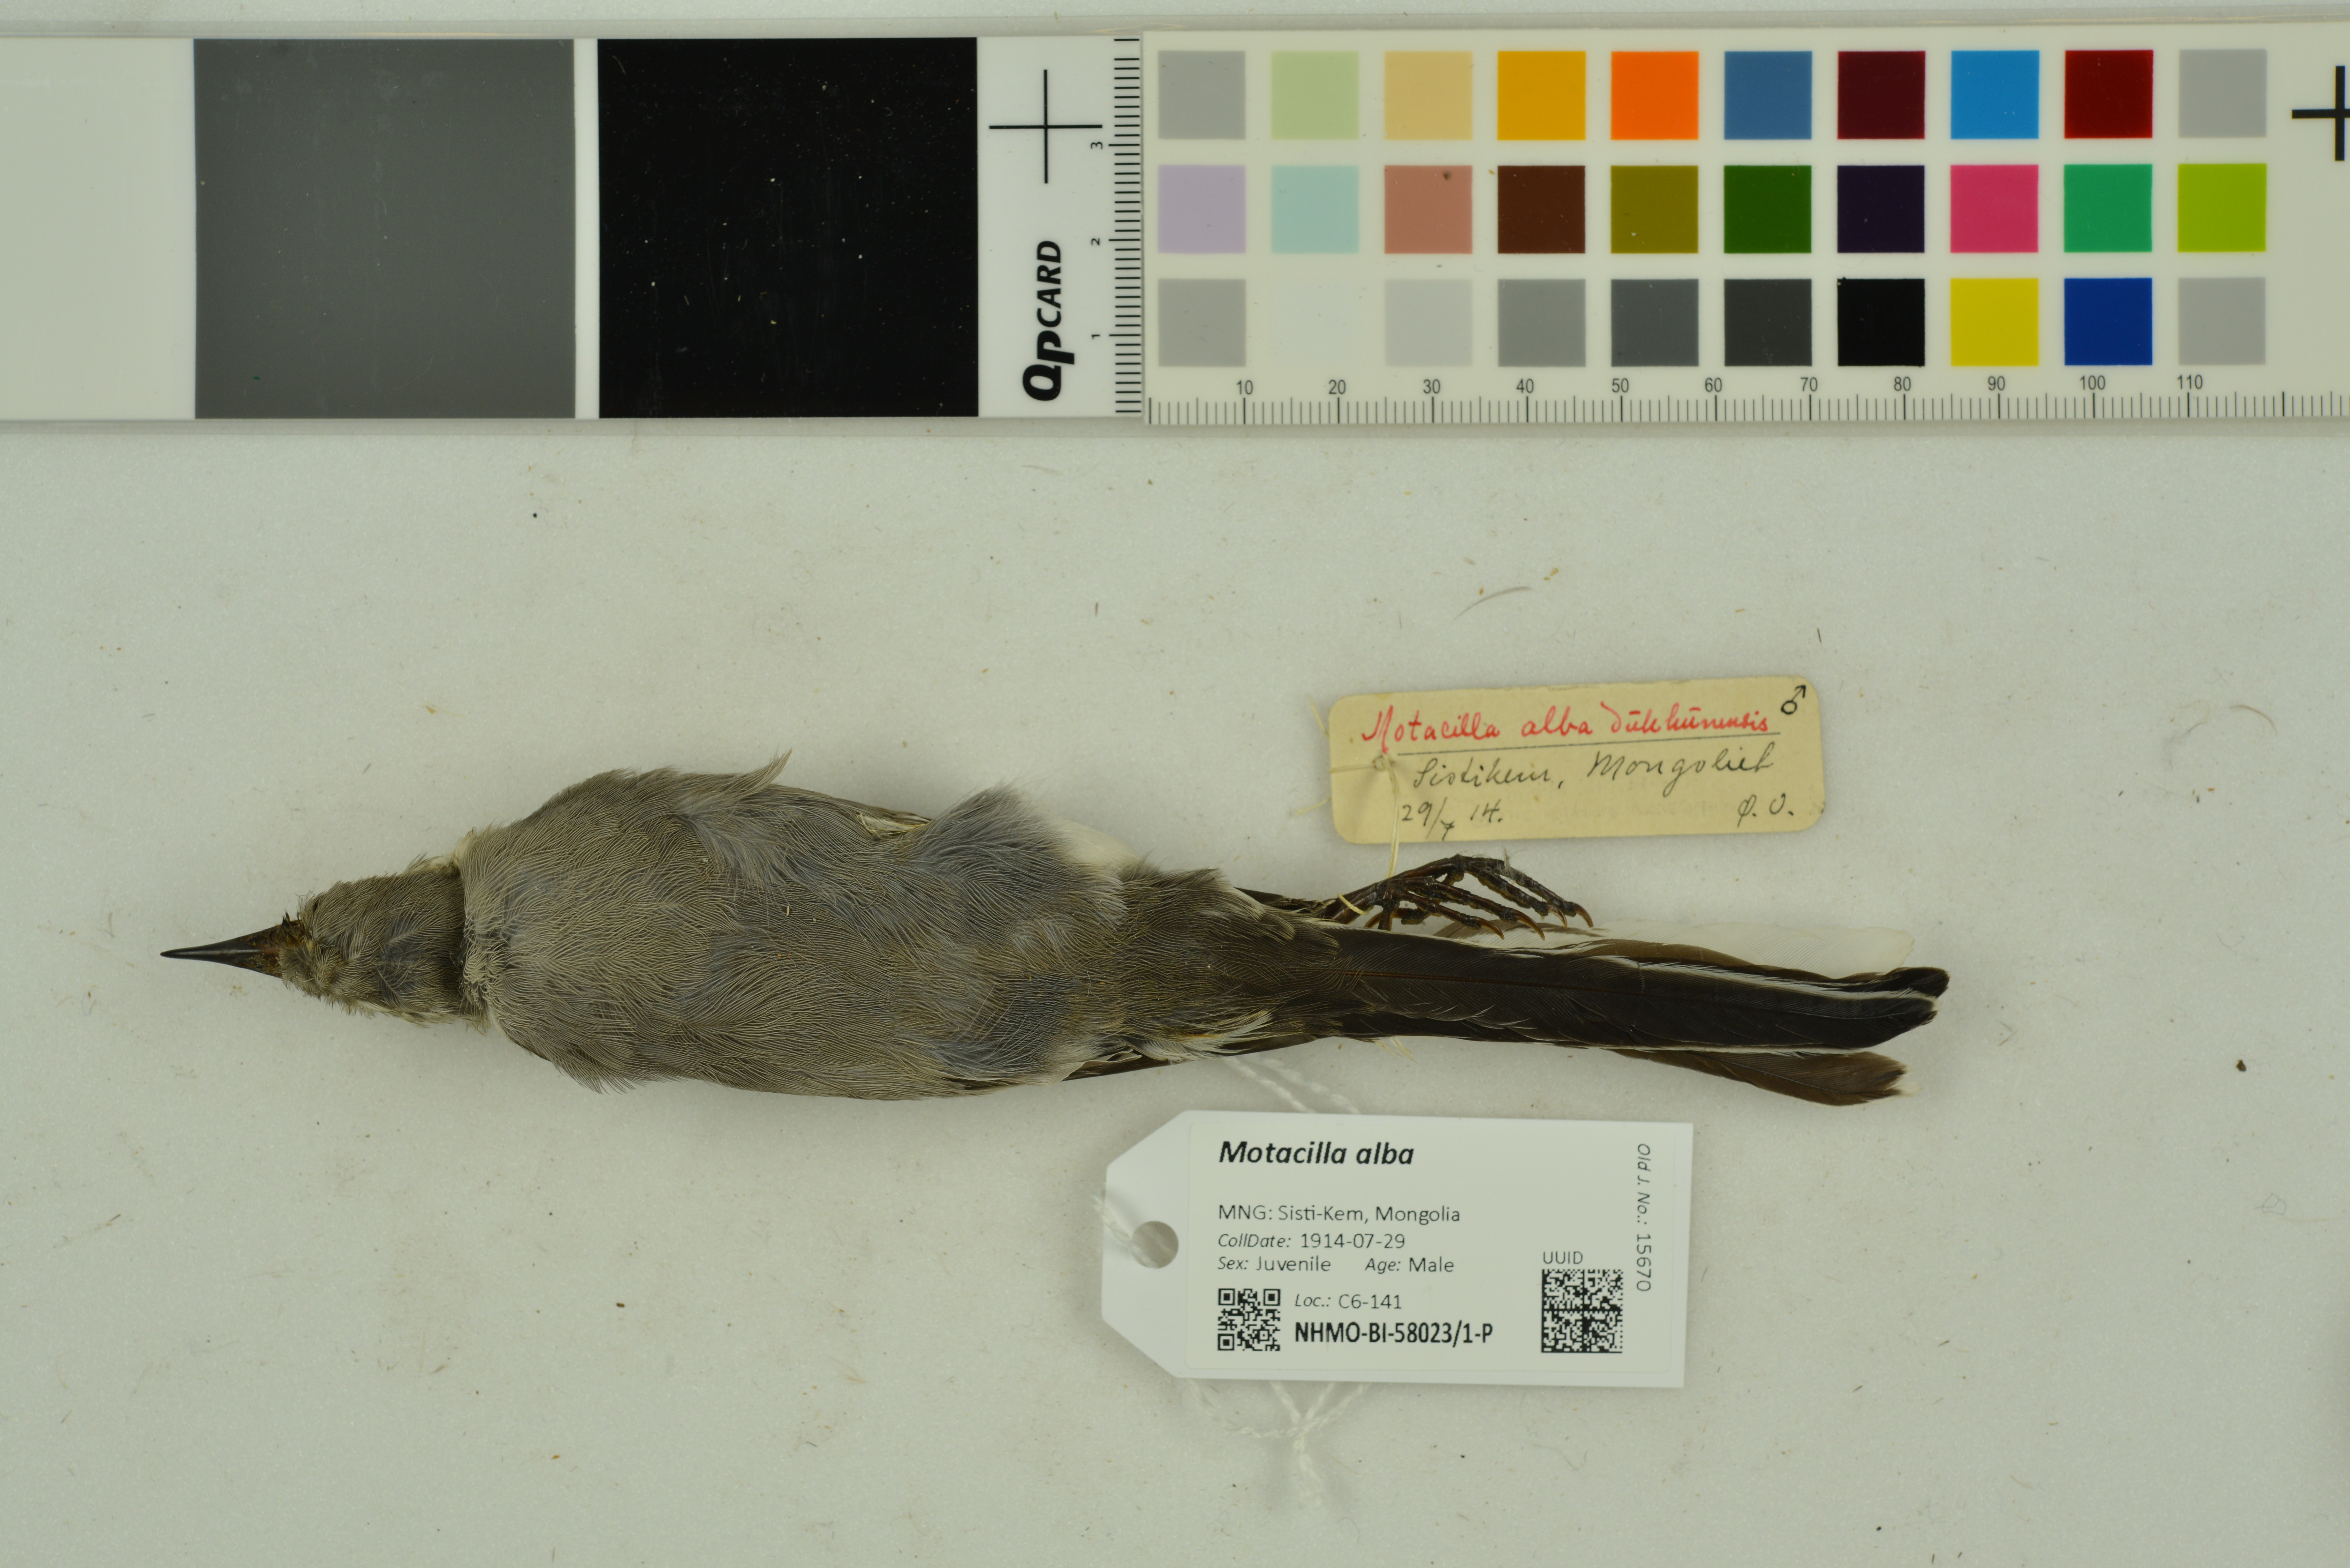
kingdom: Animalia
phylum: Chordata
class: Aves
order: Passeriformes
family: Motacillidae
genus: Motacilla
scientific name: Motacilla alba
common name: White wagtail
